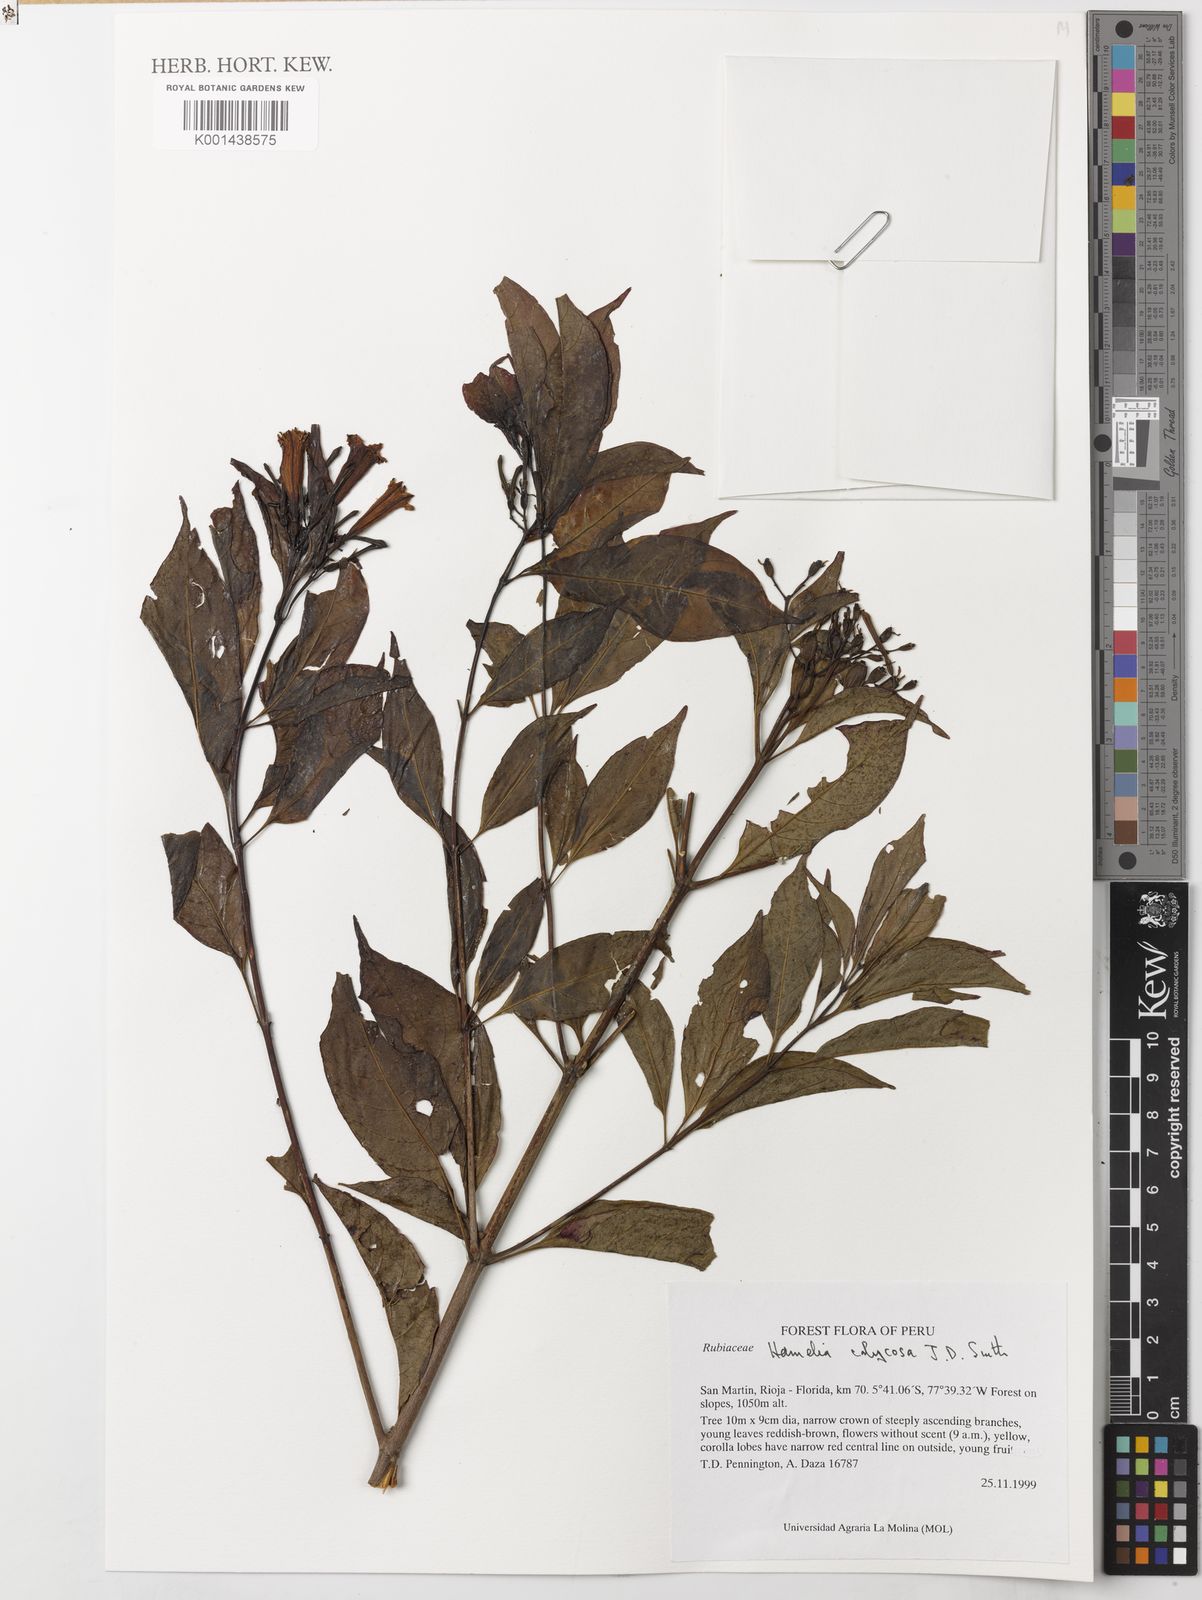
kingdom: Plantae
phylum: Tracheophyta
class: Magnoliopsida
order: Gentianales
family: Rubiaceae
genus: Hamelia
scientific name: Hamelia calycosa
